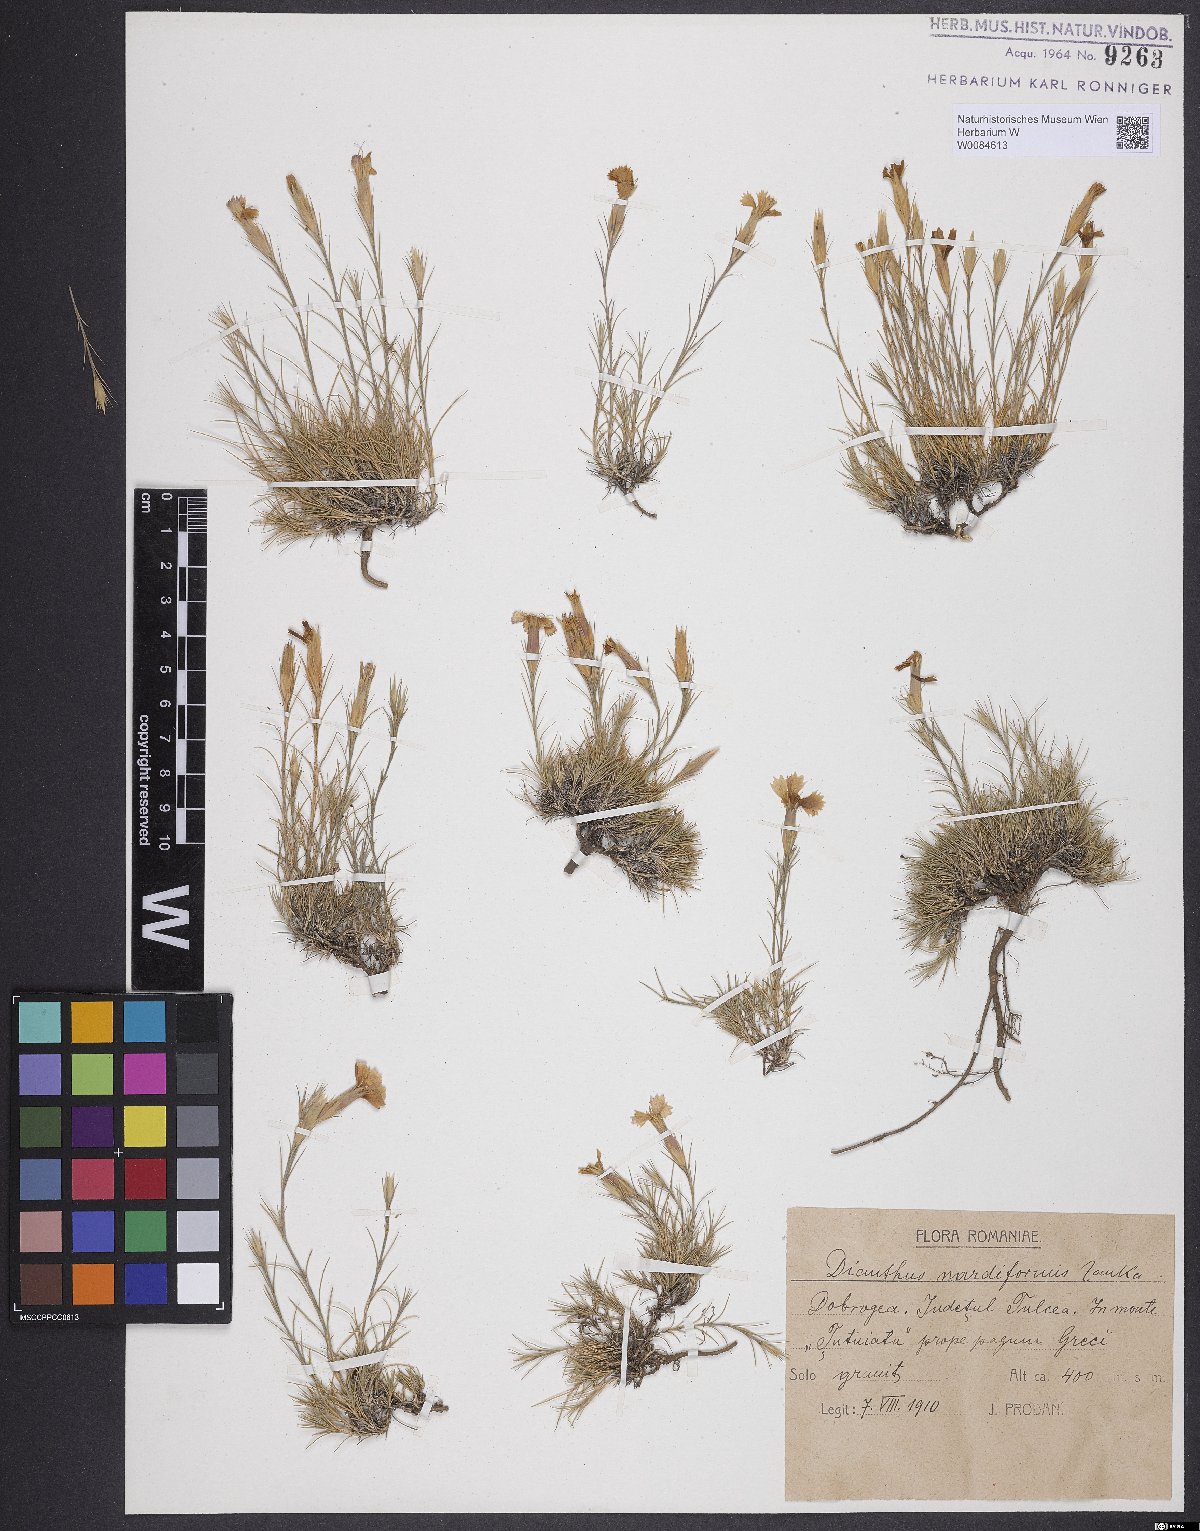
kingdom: Plantae
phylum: Tracheophyta
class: Magnoliopsida
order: Caryophyllales
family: Caryophyllaceae
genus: Dianthus
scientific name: Dianthus nardiformis
